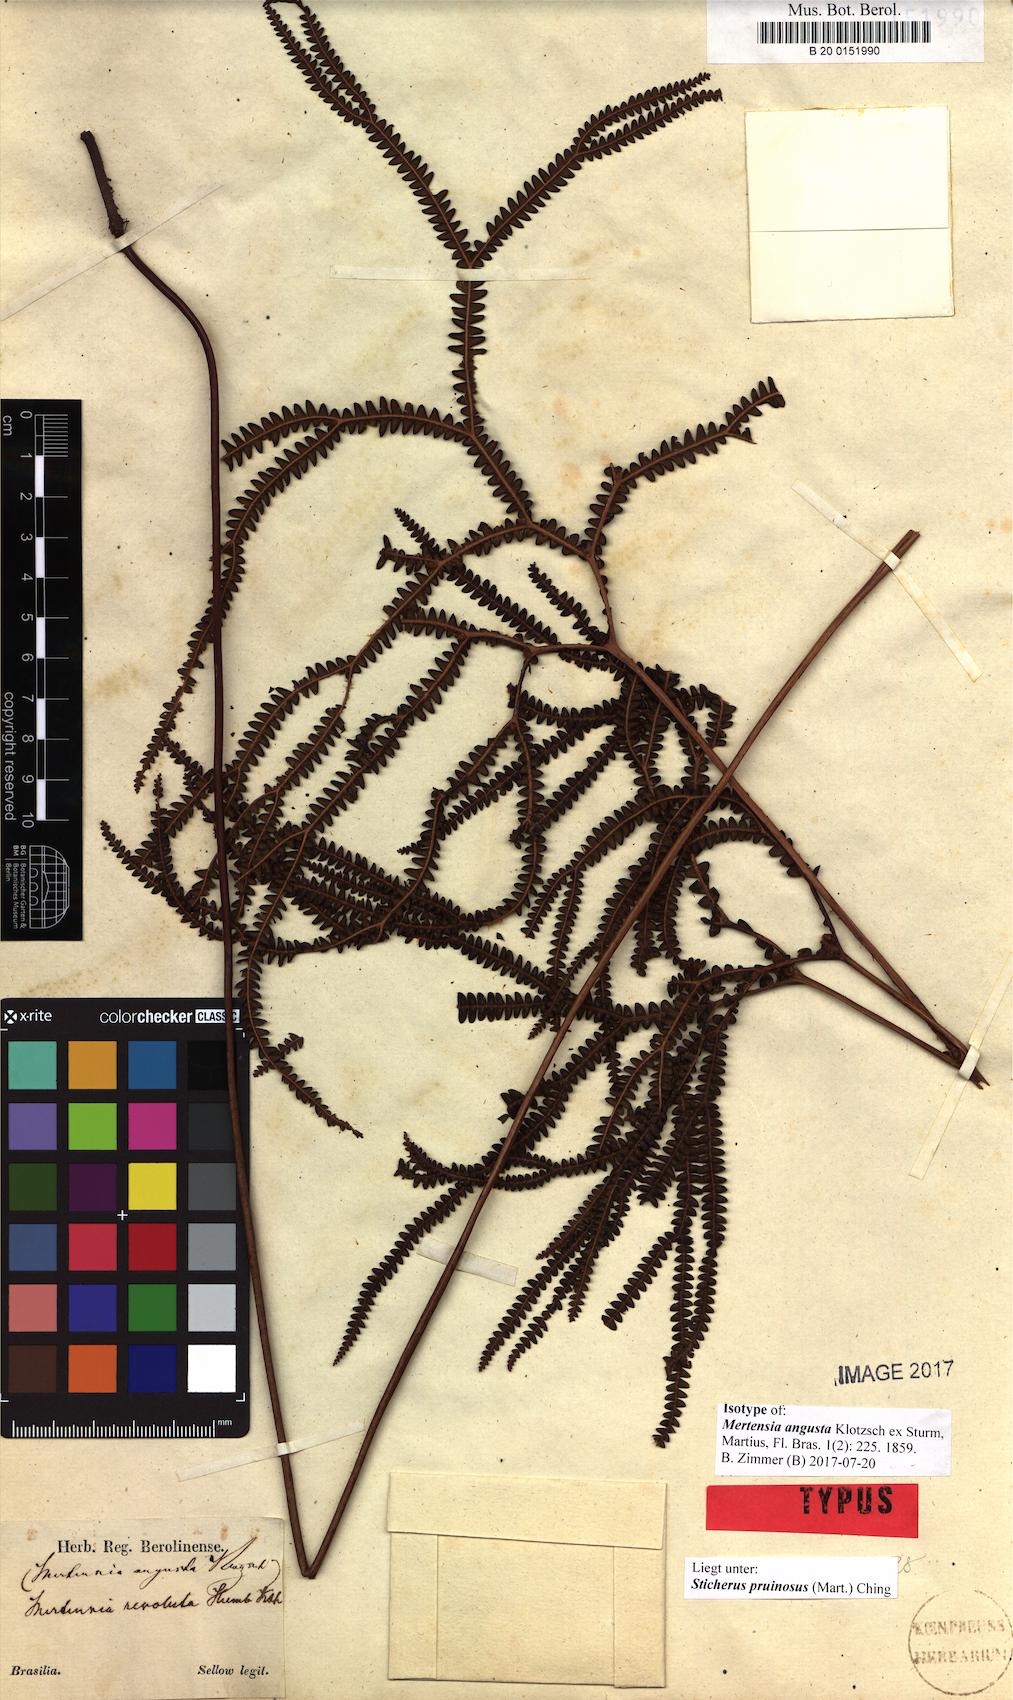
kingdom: Plantae
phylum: Tracheophyta
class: Polypodiopsida
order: Gleicheniales
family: Gleicheniaceae
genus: Sticherus
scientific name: Sticherus pruinosus
